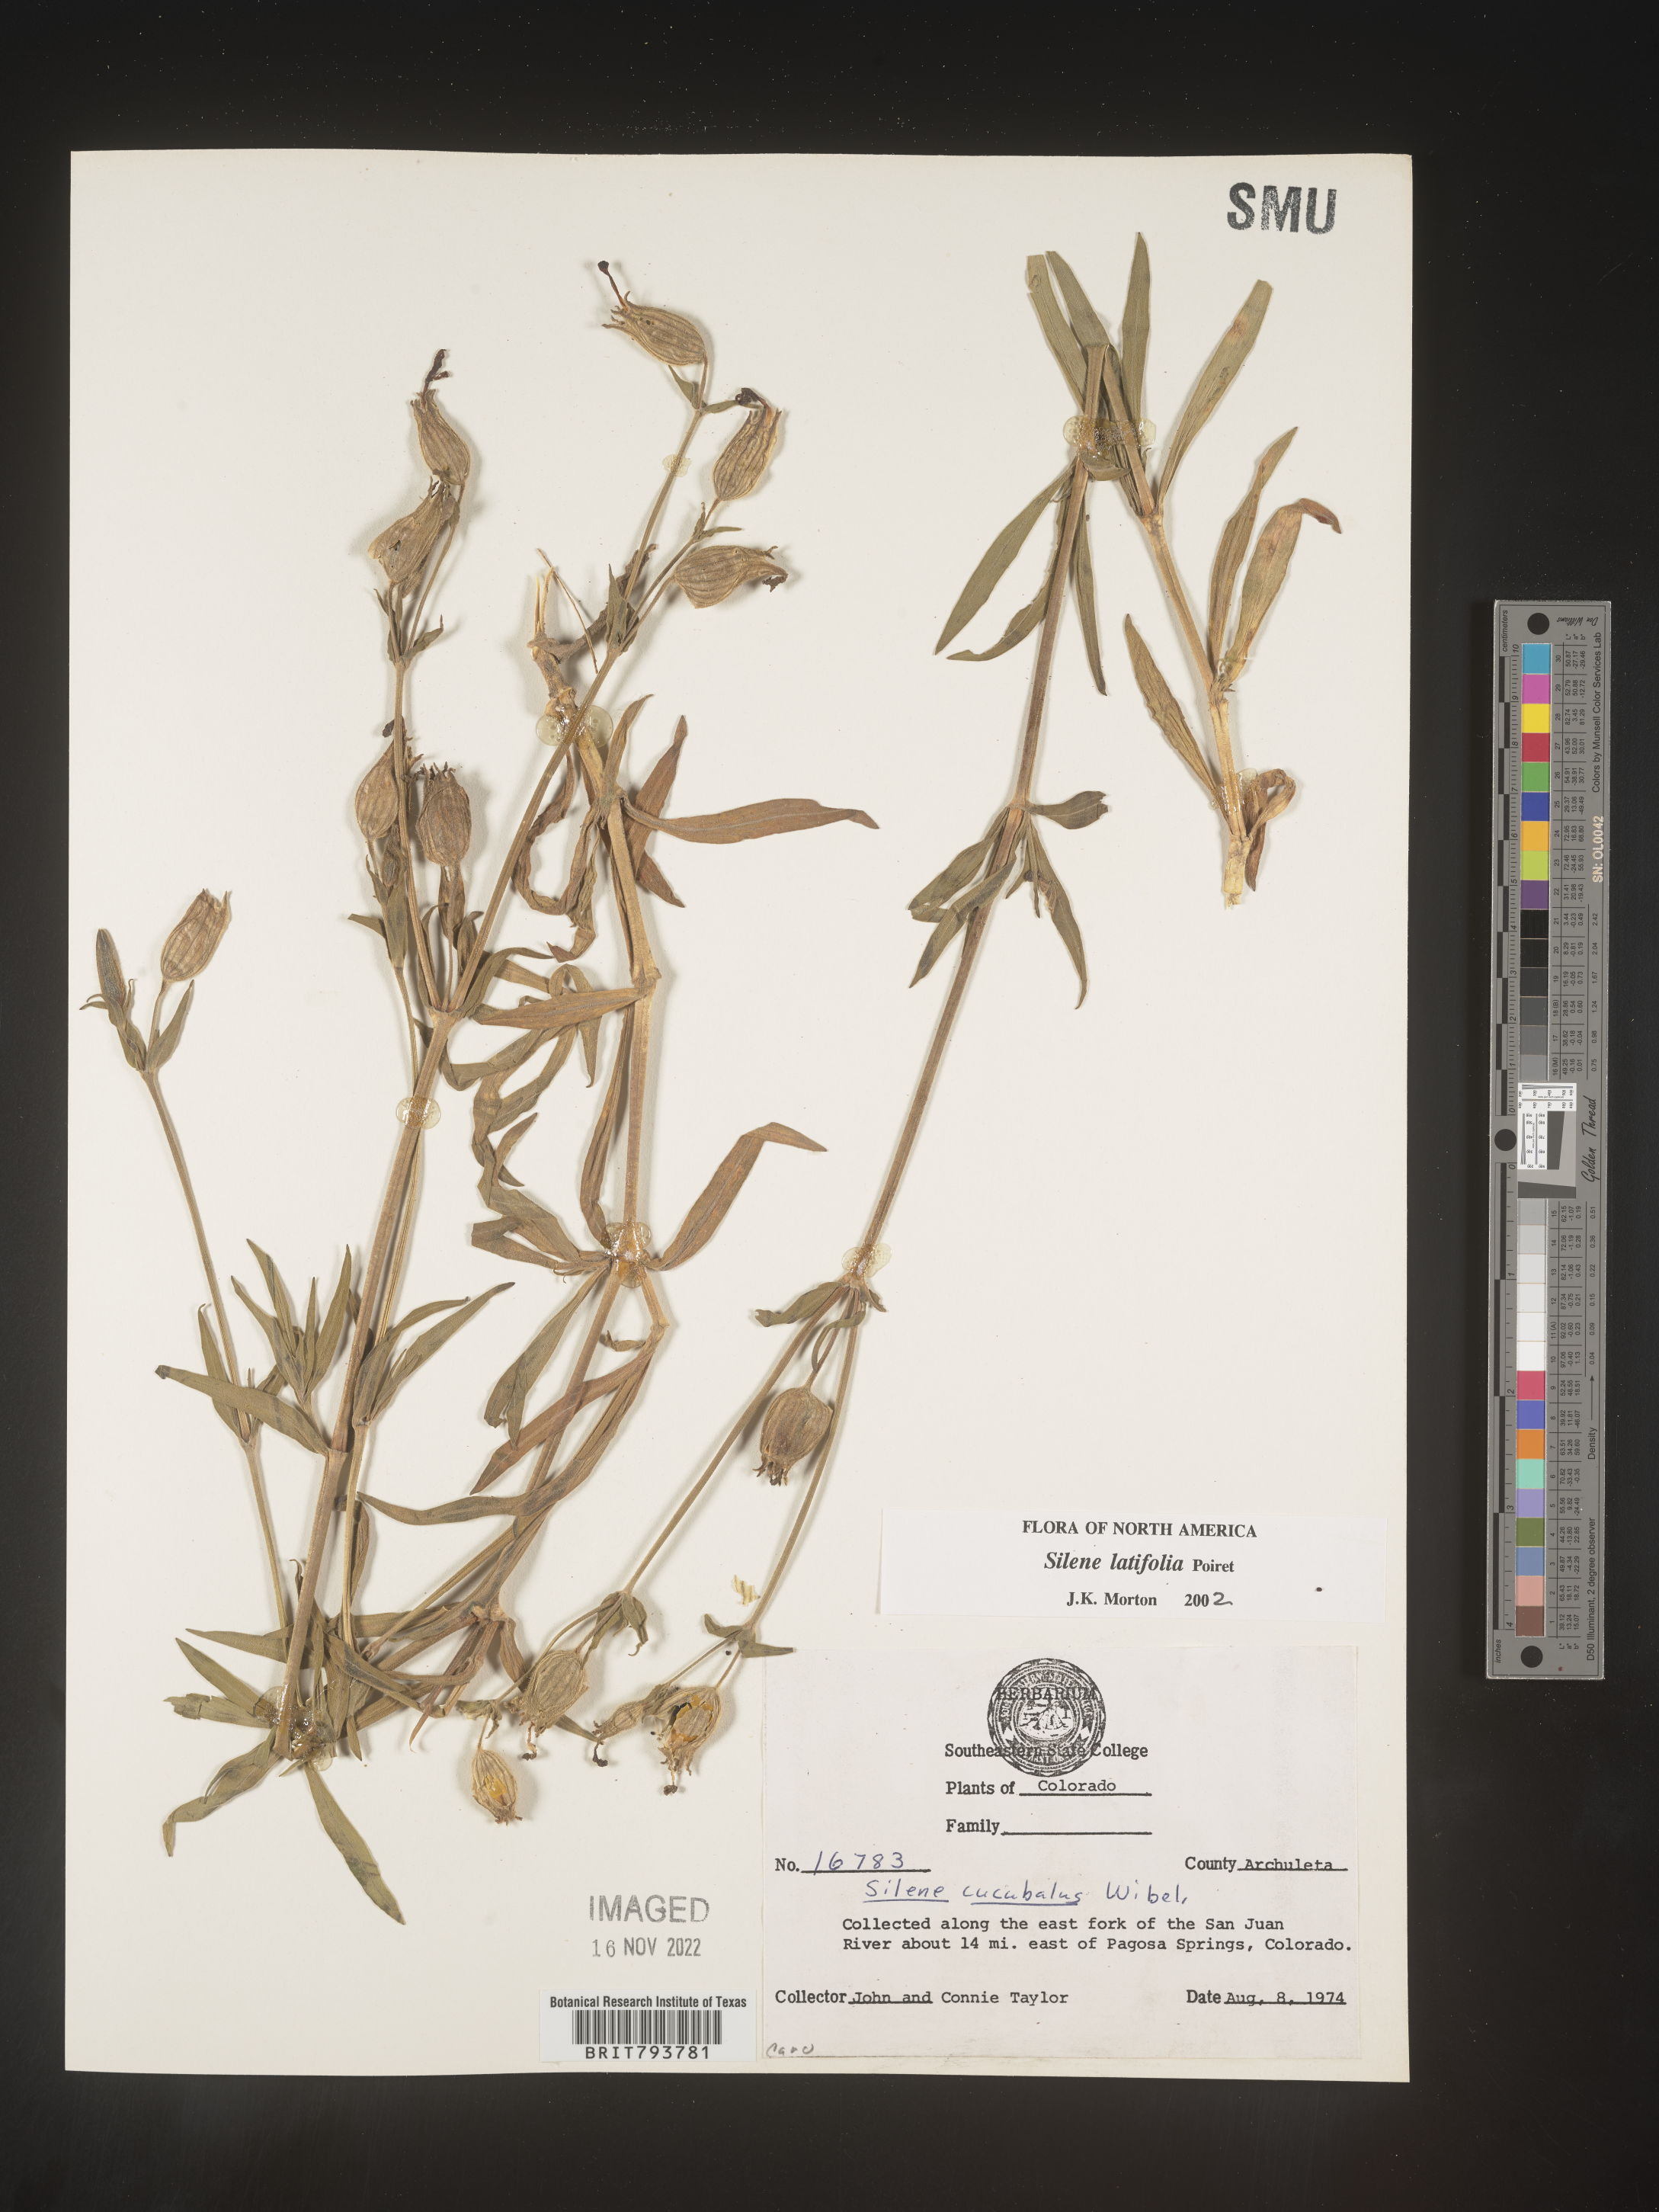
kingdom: Plantae
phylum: Tracheophyta
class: Magnoliopsida
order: Caryophyllales
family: Caryophyllaceae
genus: Silene
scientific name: Silene latifolia
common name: White campion
